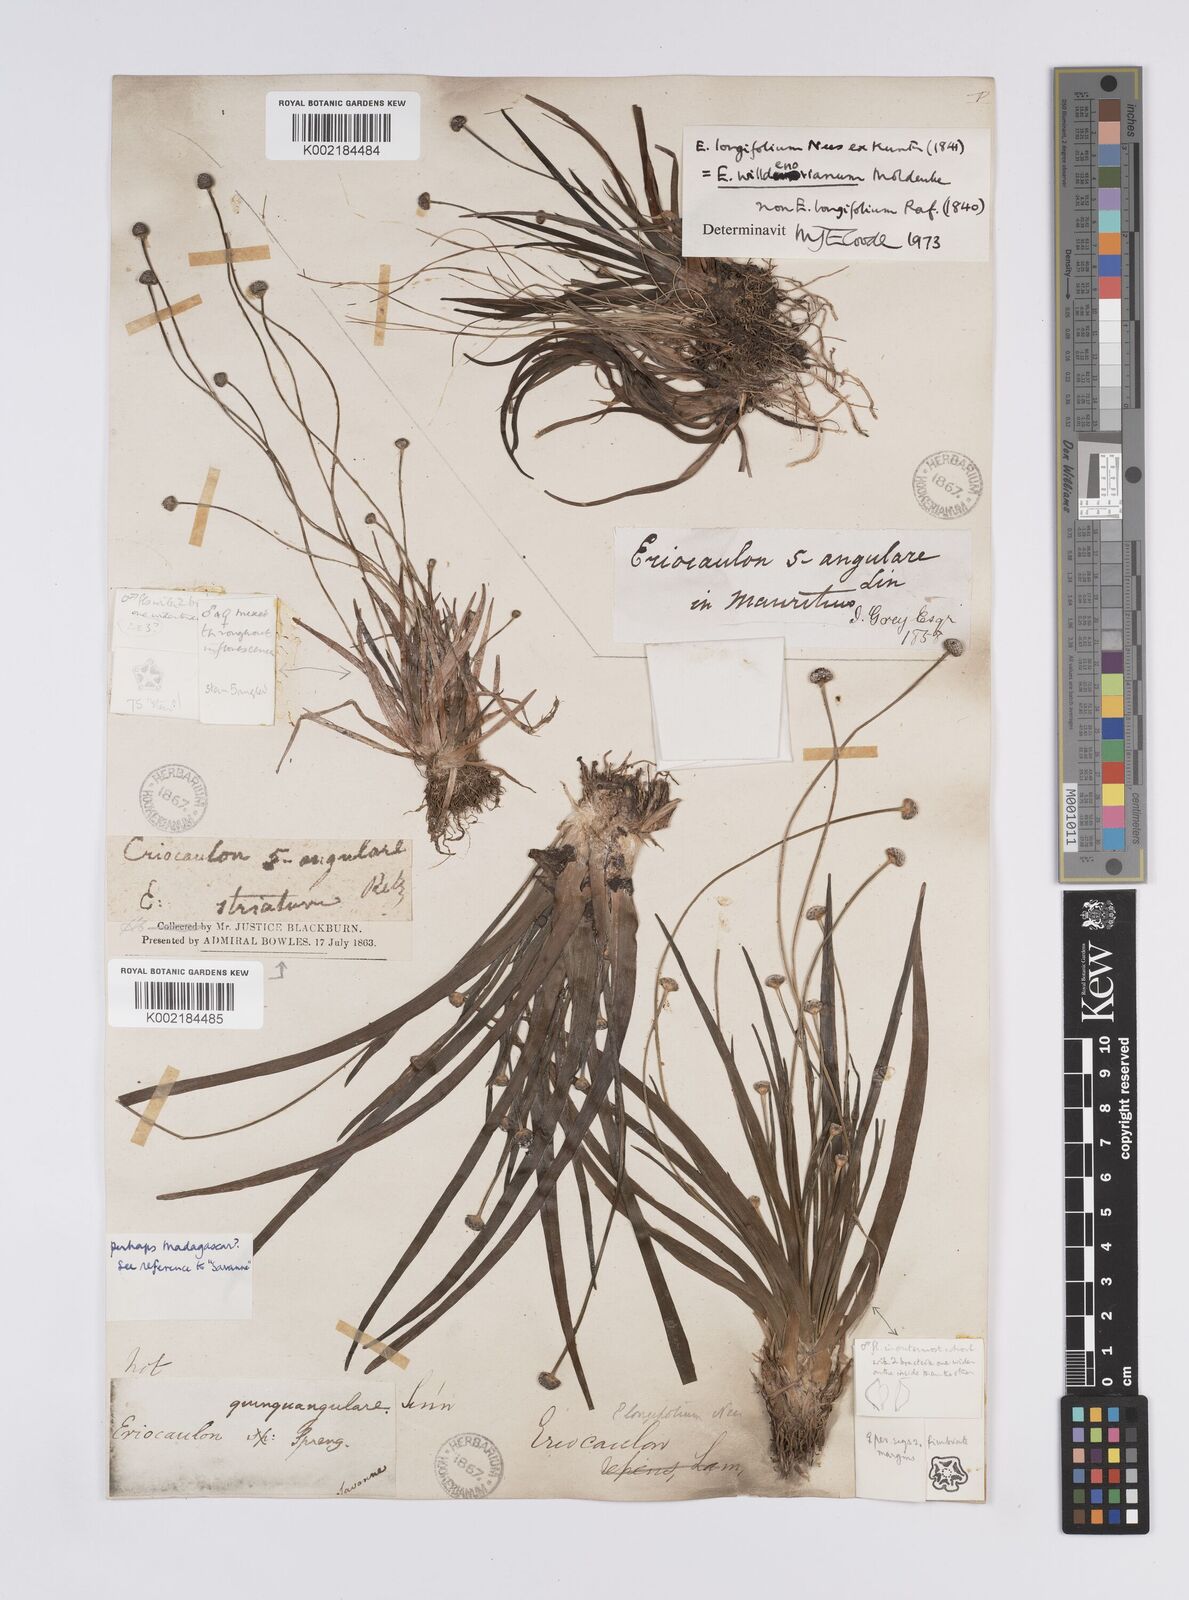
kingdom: Plantae
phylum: Tracheophyta
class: Liliopsida
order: Poales
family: Eriocaulaceae
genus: Eriocaulon
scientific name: Eriocaulon willdenovianum
